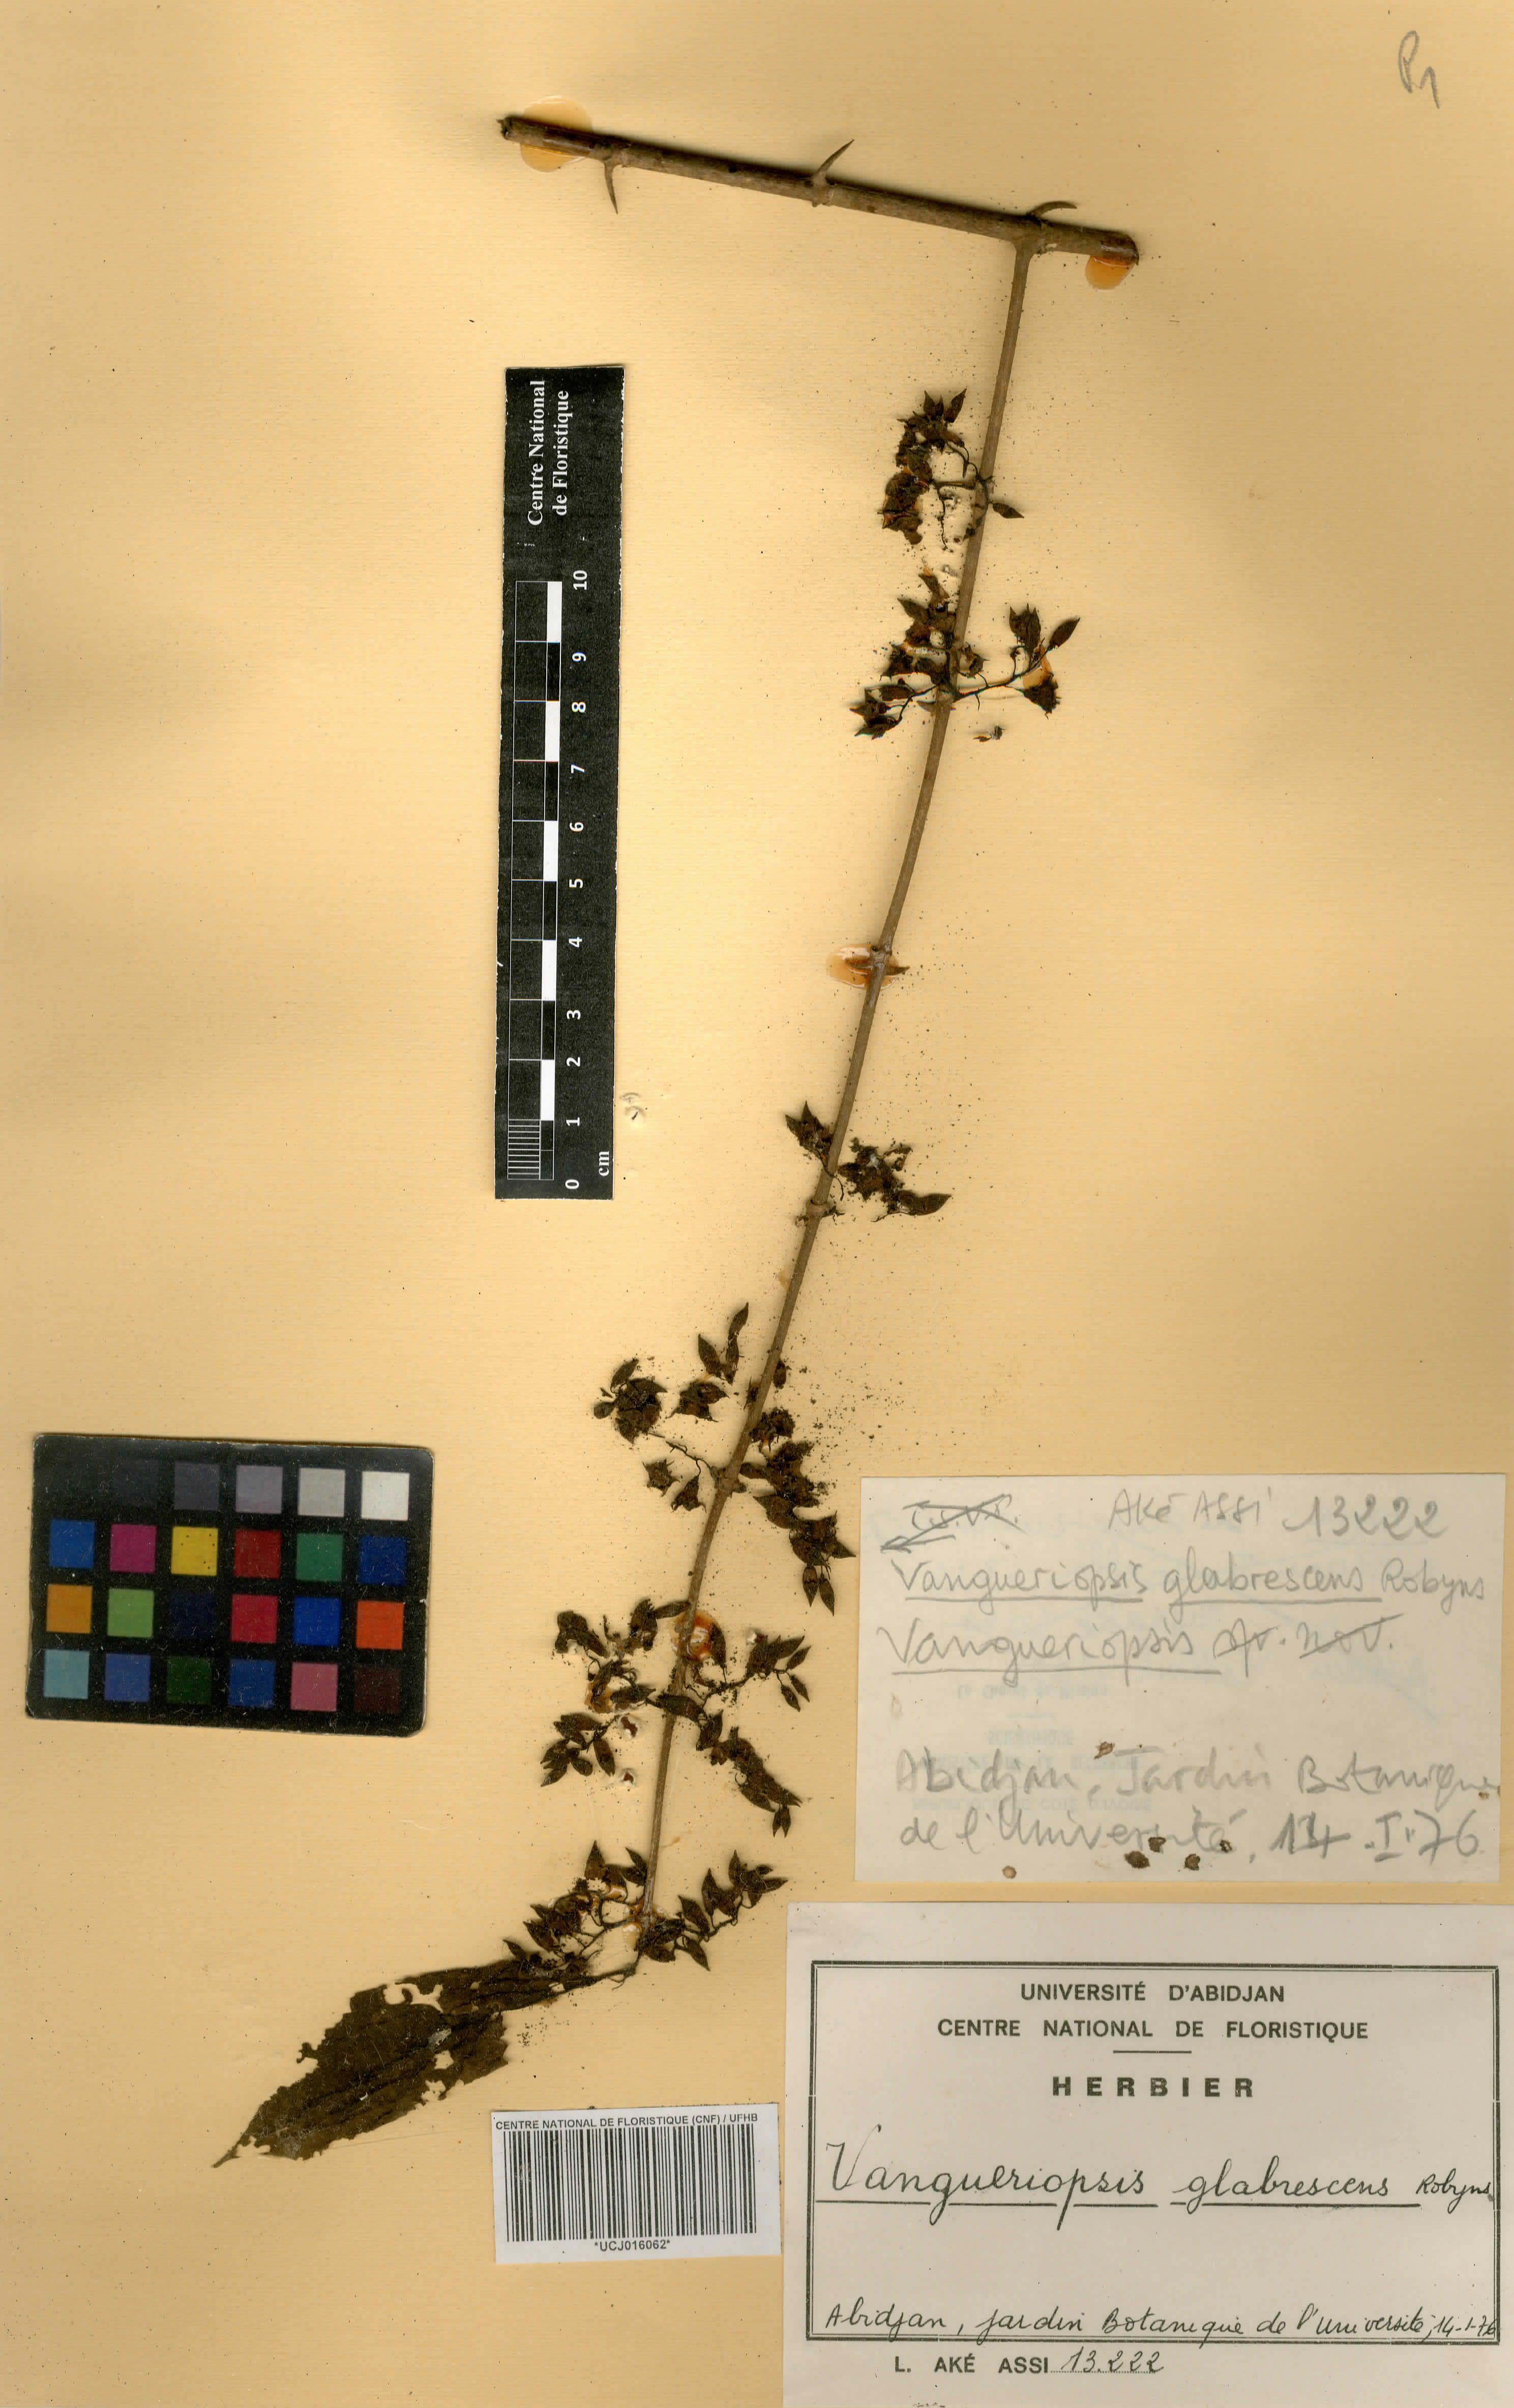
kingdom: Plantae
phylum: Tracheophyta
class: Magnoliopsida
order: Gentianales
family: Rubiaceae
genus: Vangueriella
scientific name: Vangueriella glabrescens
